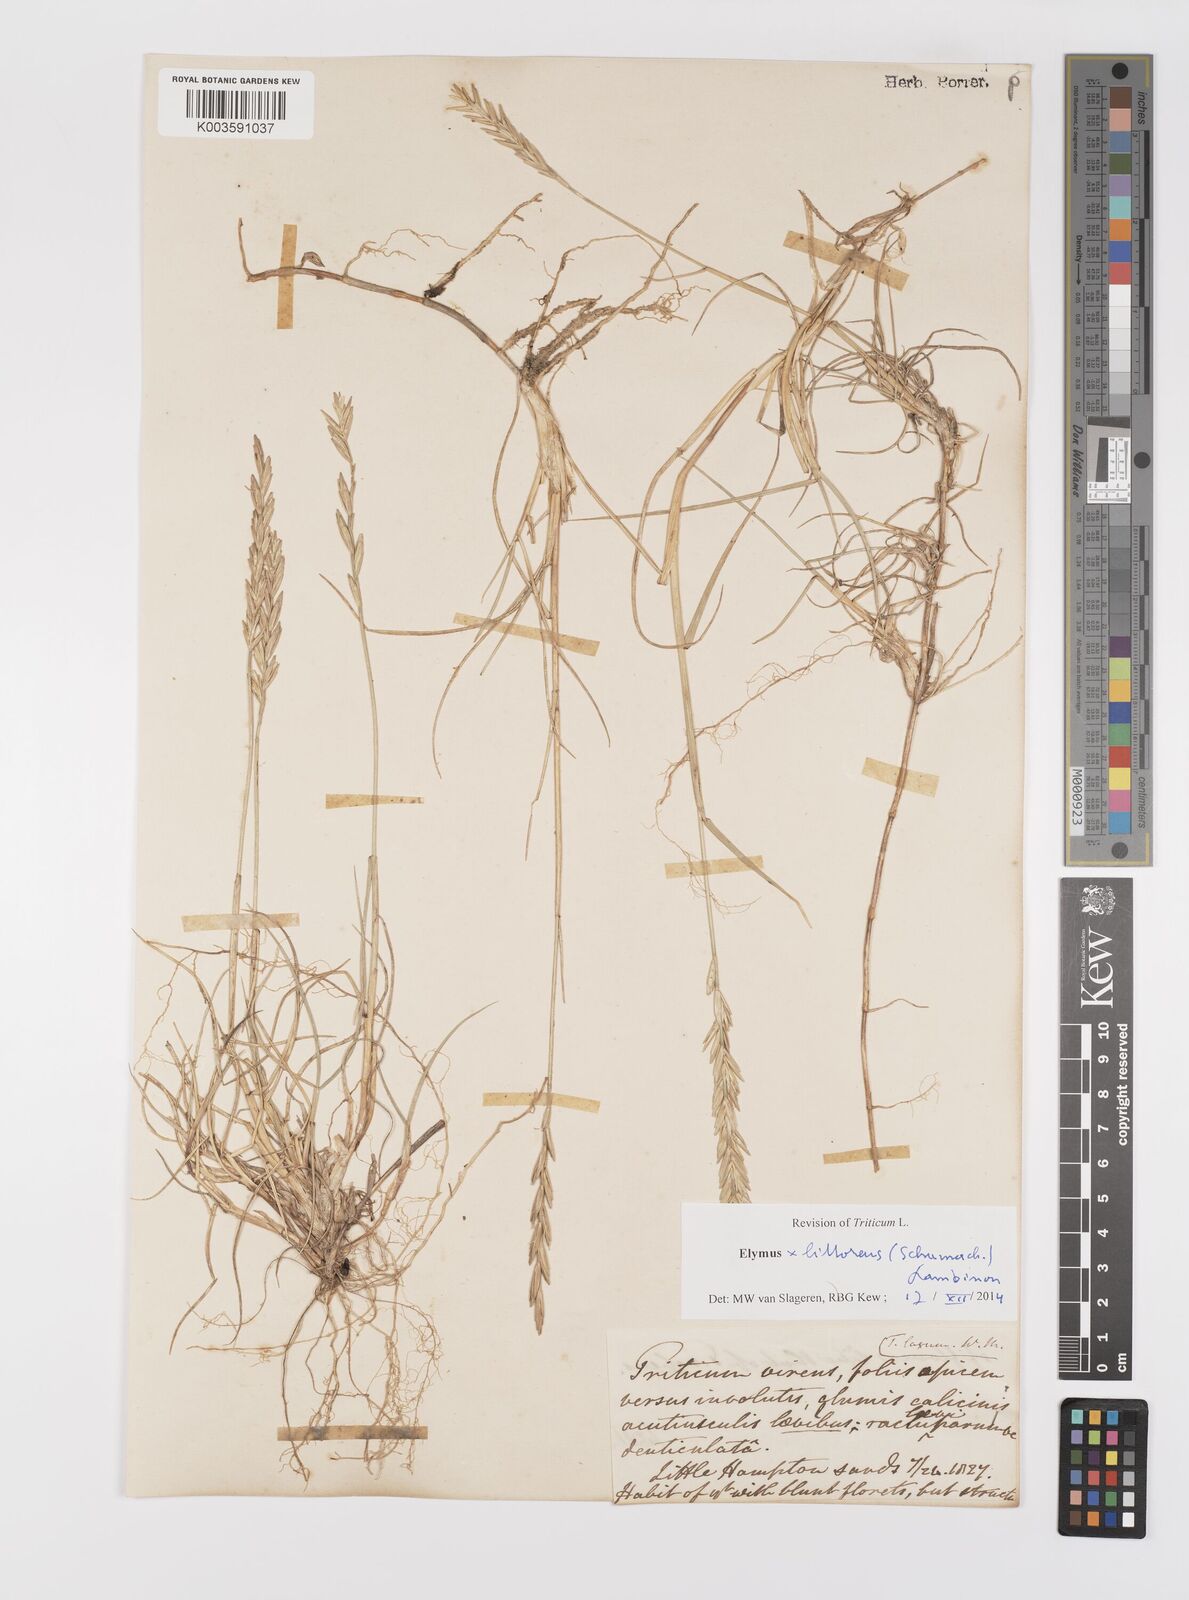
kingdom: Plantae
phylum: Tracheophyta
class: Liliopsida
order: Poales
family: Poaceae
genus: Leymus
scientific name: Leymus
